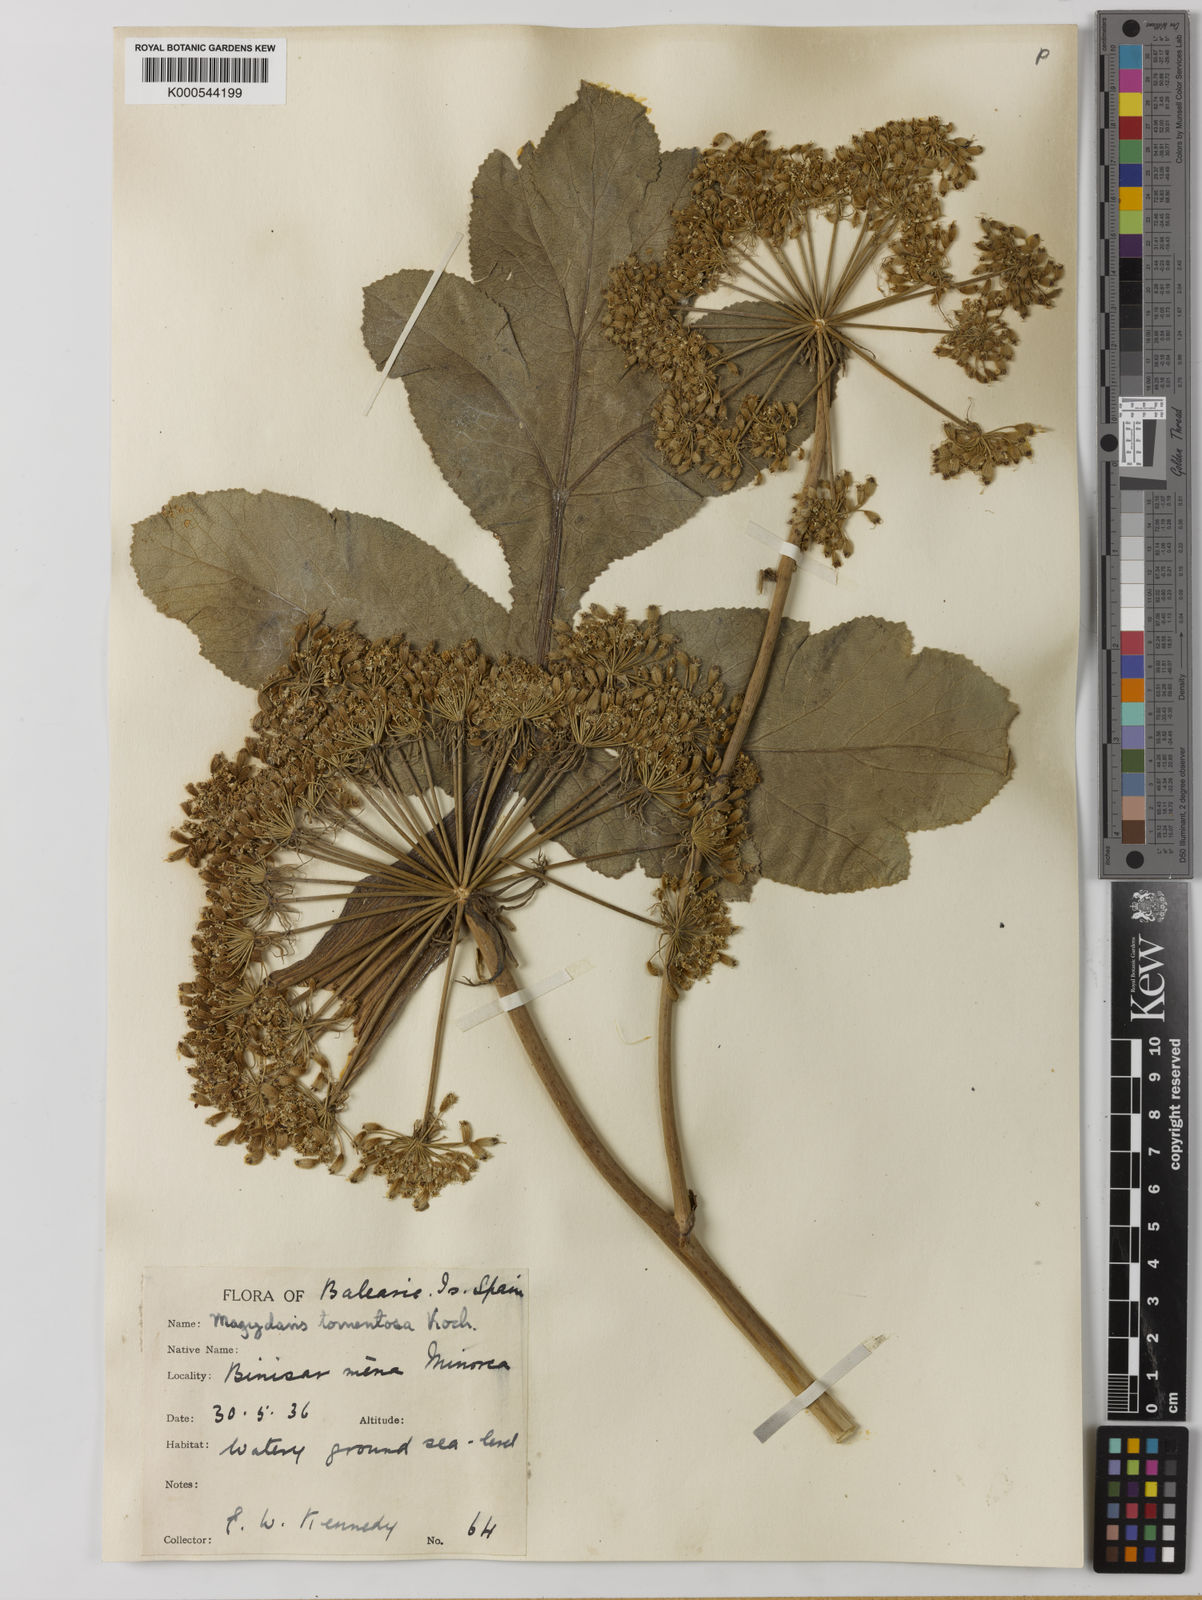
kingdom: Plantae
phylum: Tracheophyta
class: Magnoliopsida
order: Apiales
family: Apiaceae
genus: Magydaris
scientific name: Magydaris pastinacea
